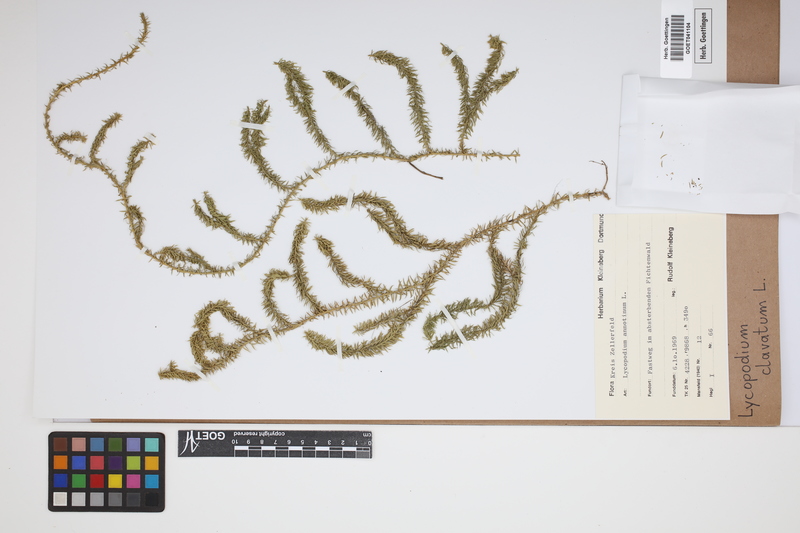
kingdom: Plantae
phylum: Tracheophyta
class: Lycopodiopsida
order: Lycopodiales
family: Lycopodiaceae
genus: Lycopodium
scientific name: Lycopodium clavatum
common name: Stag's-horn clubmoss
